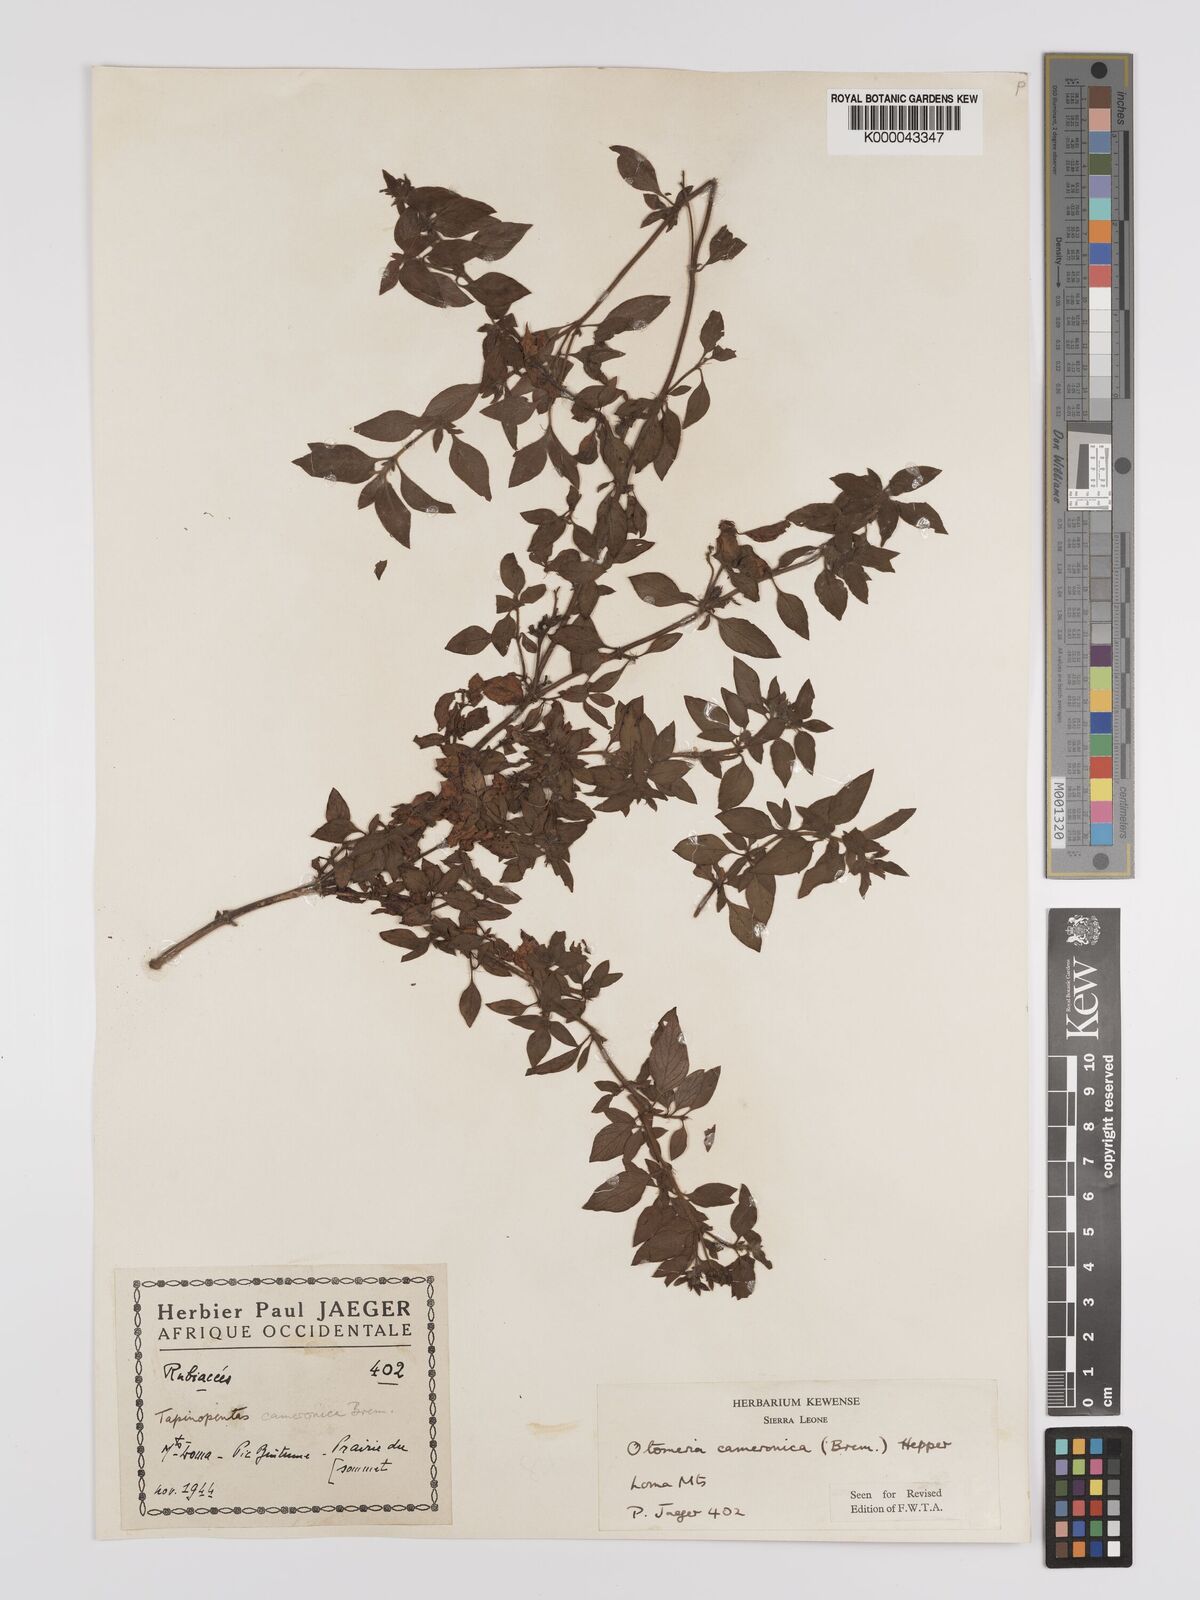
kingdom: Plantae
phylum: Tracheophyta
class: Magnoliopsida
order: Gentianales
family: Rubiaceae
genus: Otomeria
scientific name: Otomeria cameronica
